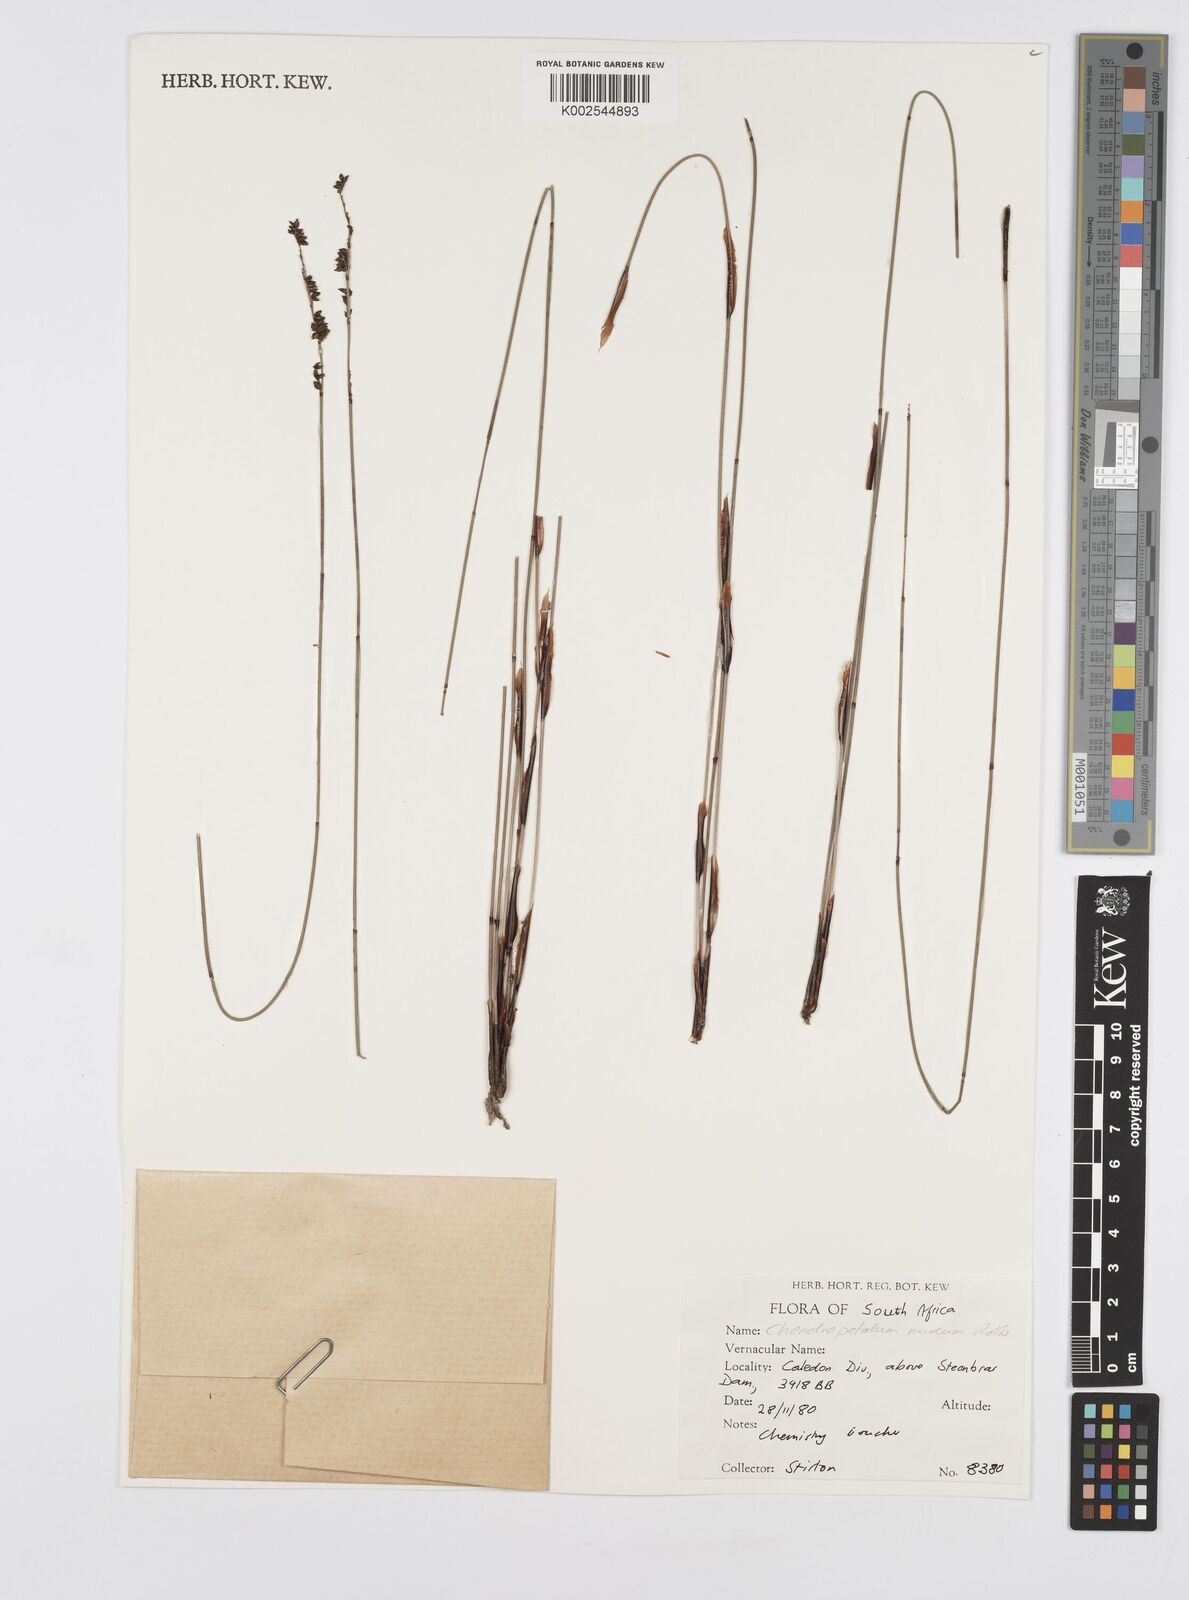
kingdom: Plantae
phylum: Tracheophyta
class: Liliopsida
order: Poales
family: Restionaceae
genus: Elegia
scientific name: Elegia nuda
